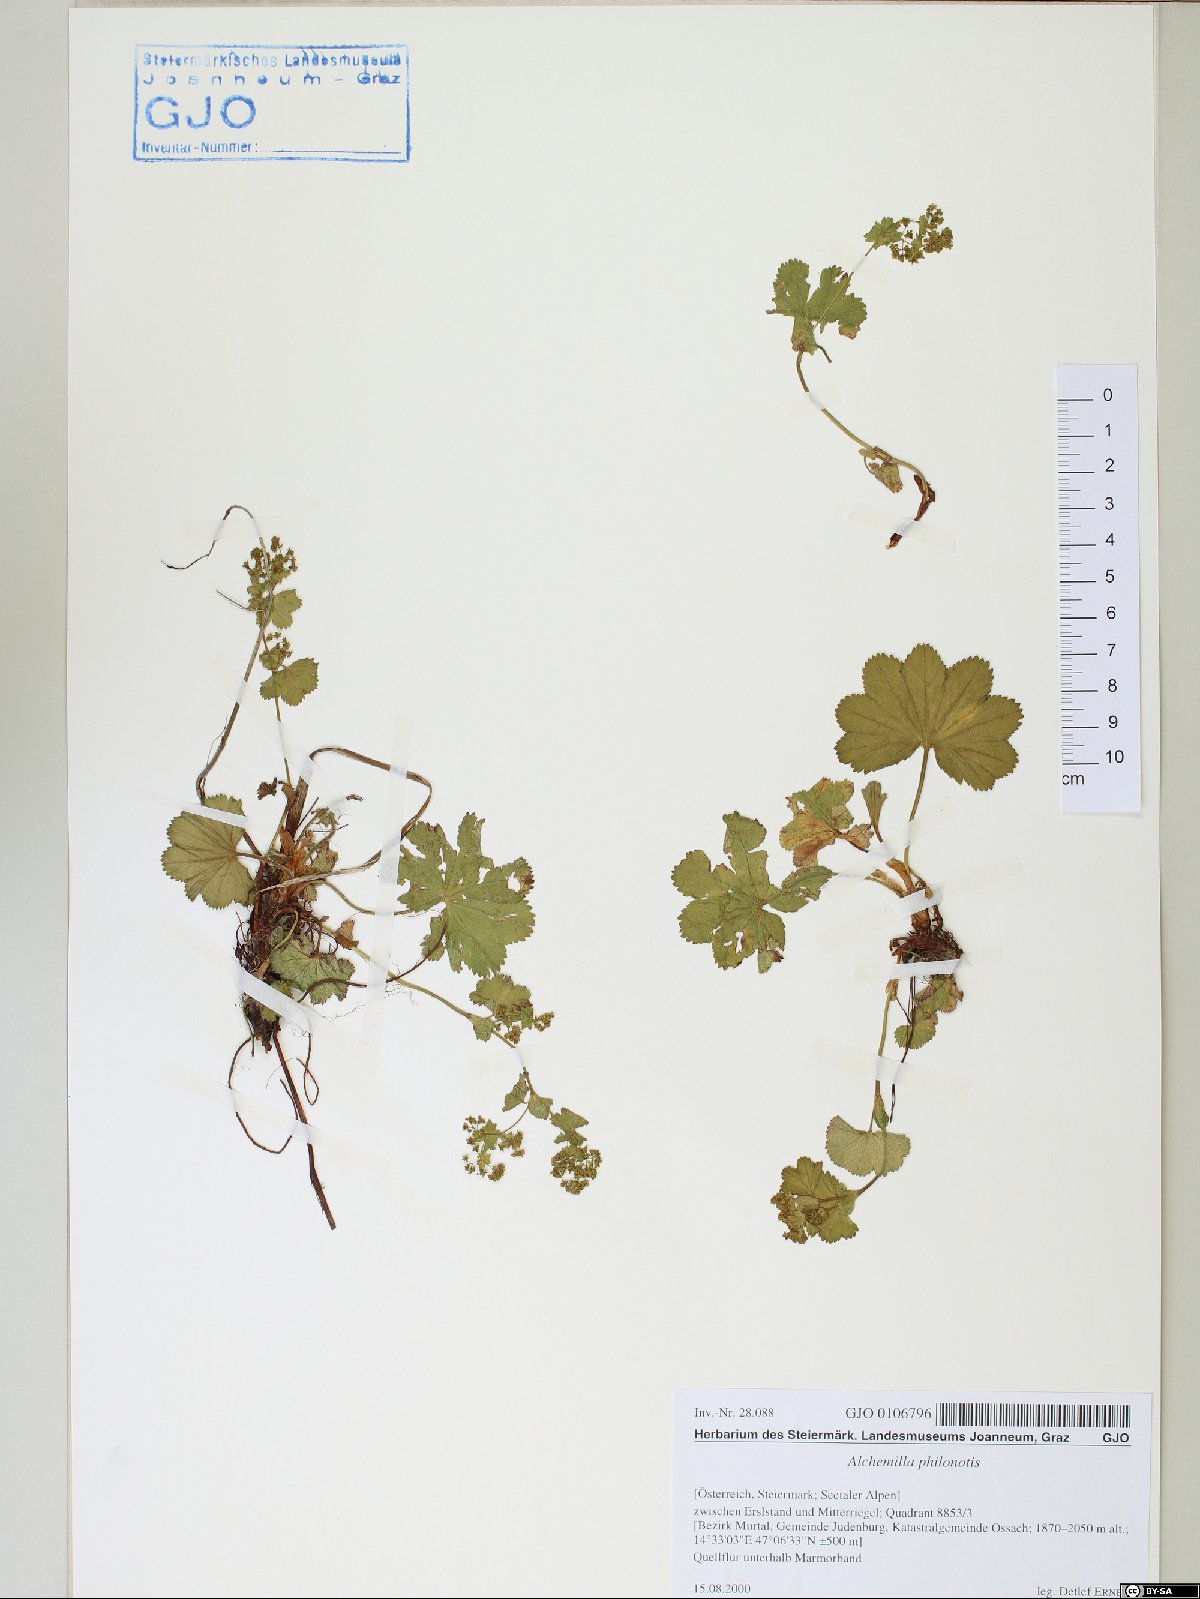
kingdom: Plantae
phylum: Tracheophyta
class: Magnoliopsida
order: Myrtales
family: Onagraceae
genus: Epilobium
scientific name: Epilobium alsinifolium
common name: Chickweed willowherb
